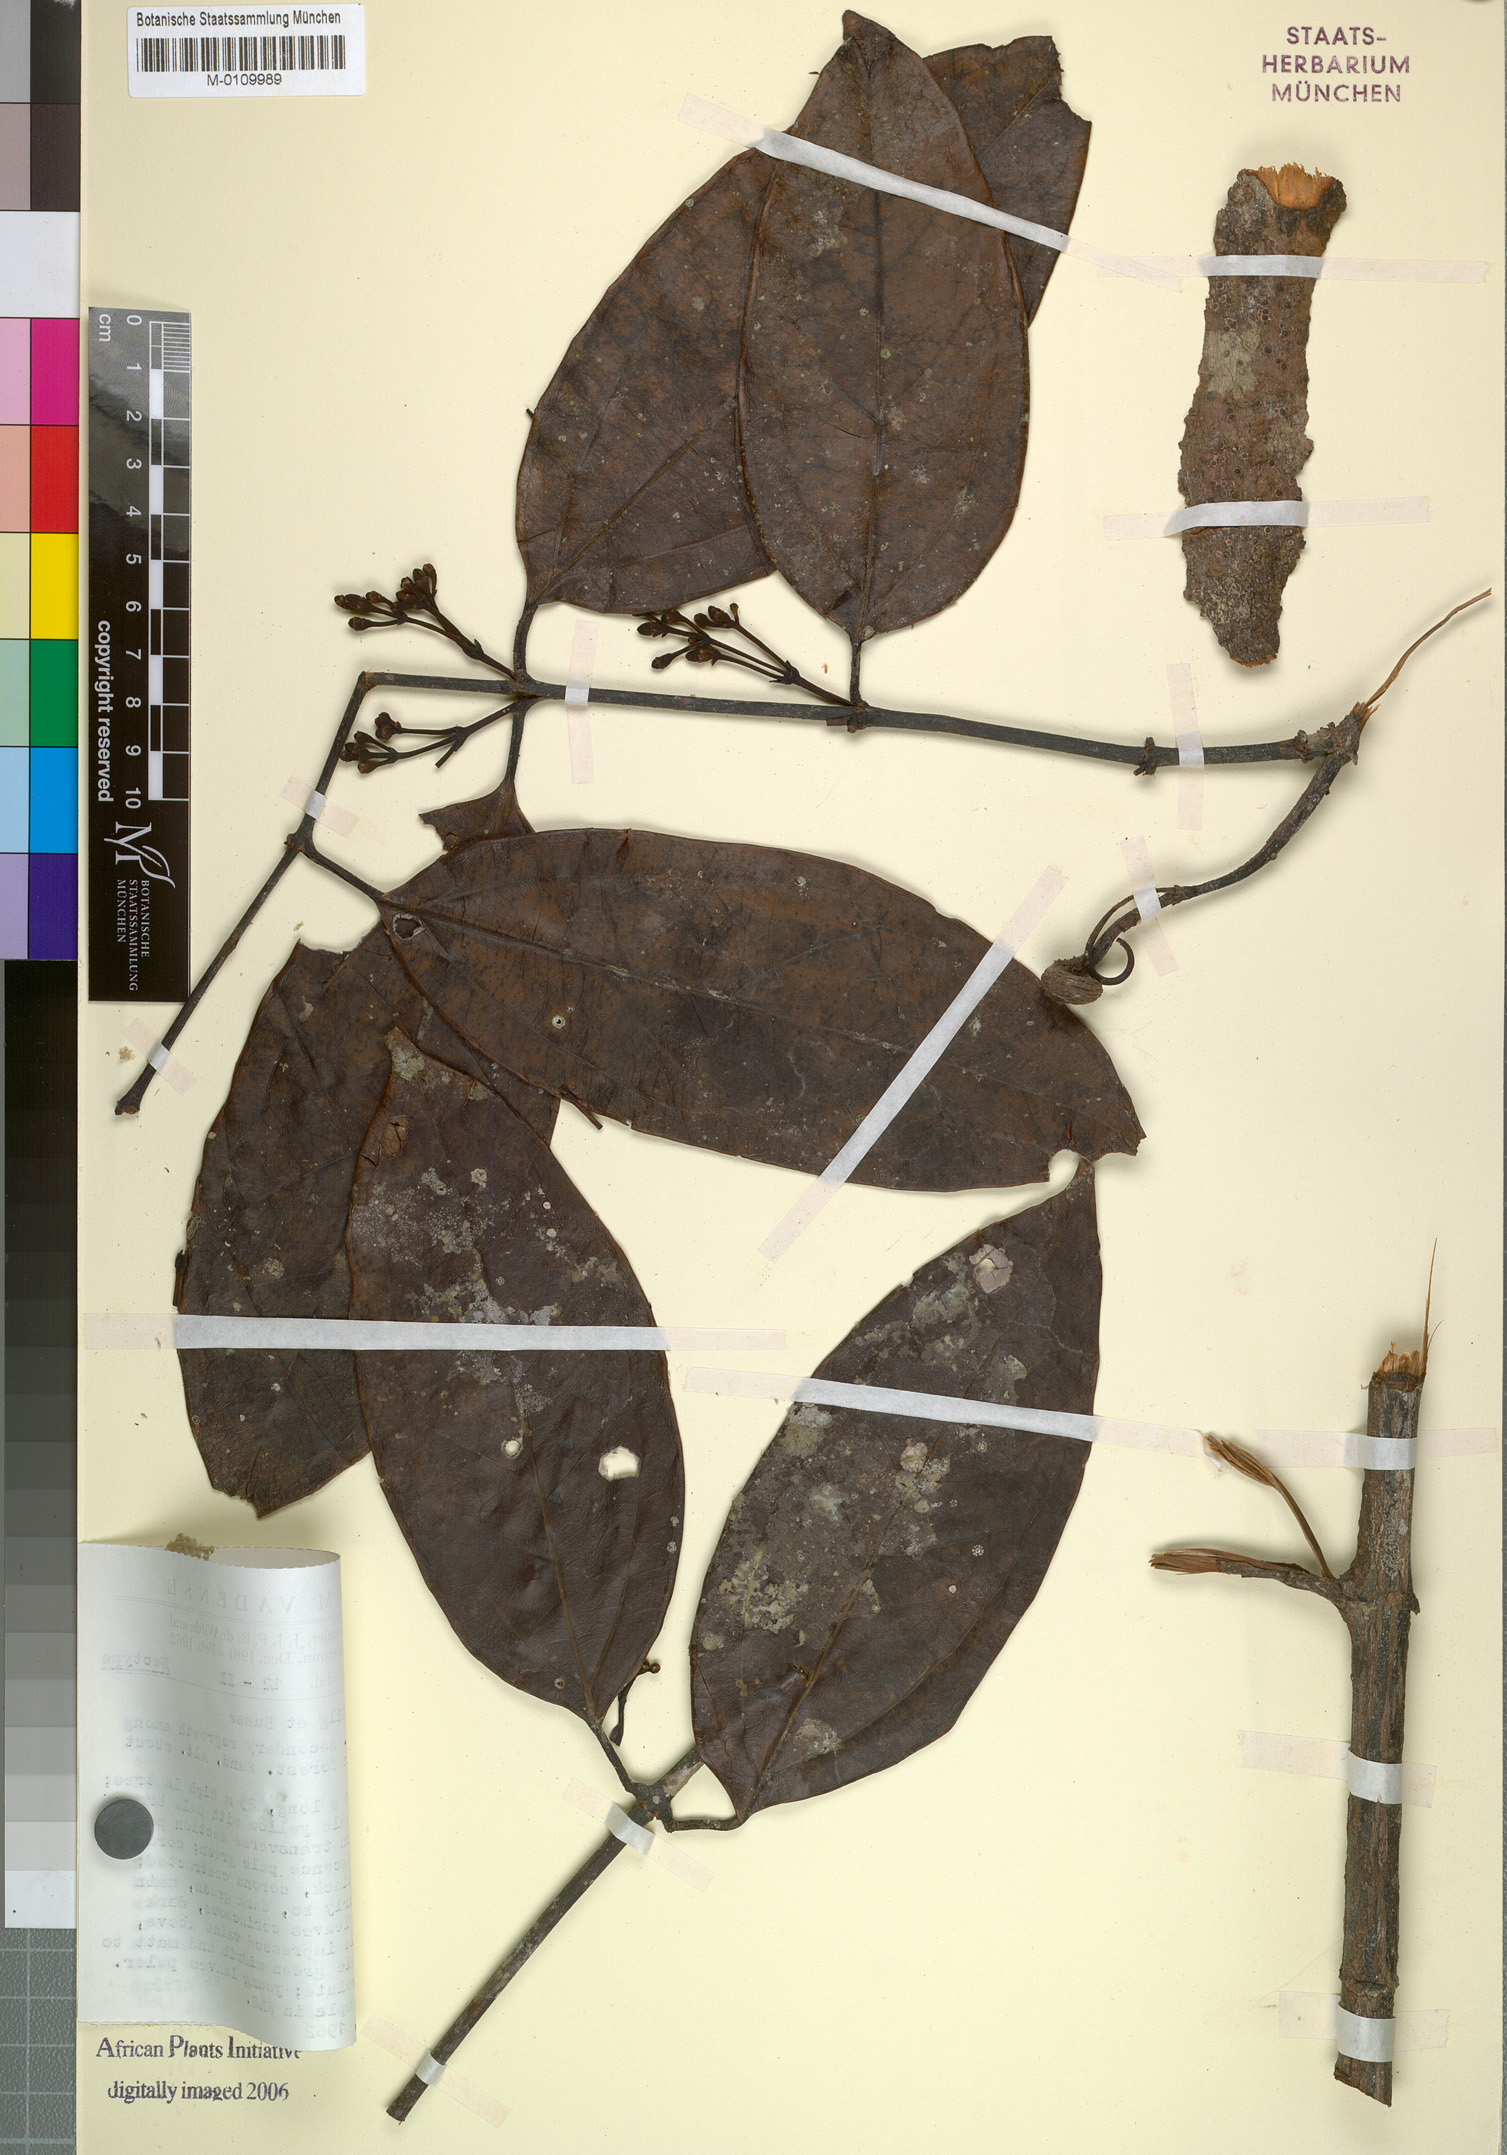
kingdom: Plantae
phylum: Tracheophyta
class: Magnoliopsida
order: Gentianales
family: Loganiaceae
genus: Strychnos
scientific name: Strychnos camptoneura
